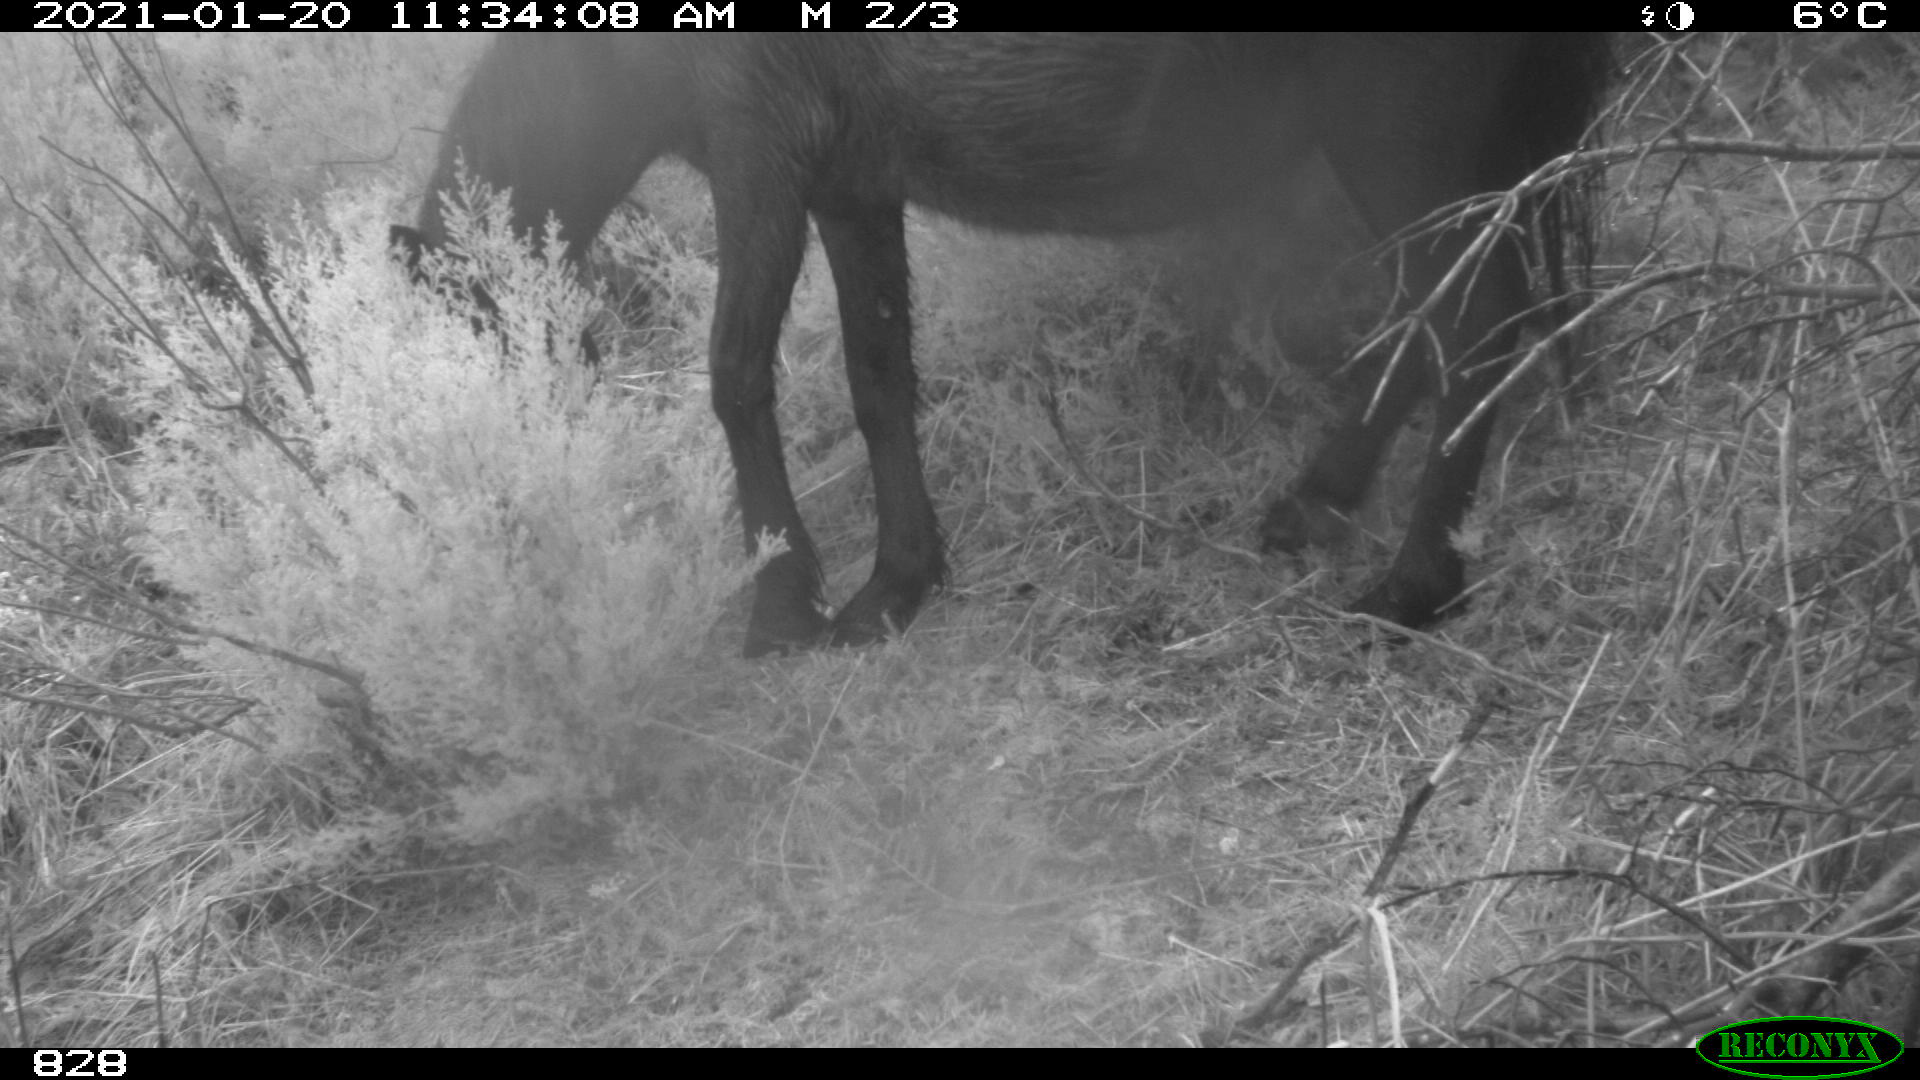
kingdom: Animalia
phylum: Chordata
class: Mammalia
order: Perissodactyla
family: Equidae
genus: Equus
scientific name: Equus caballus
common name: Horse
